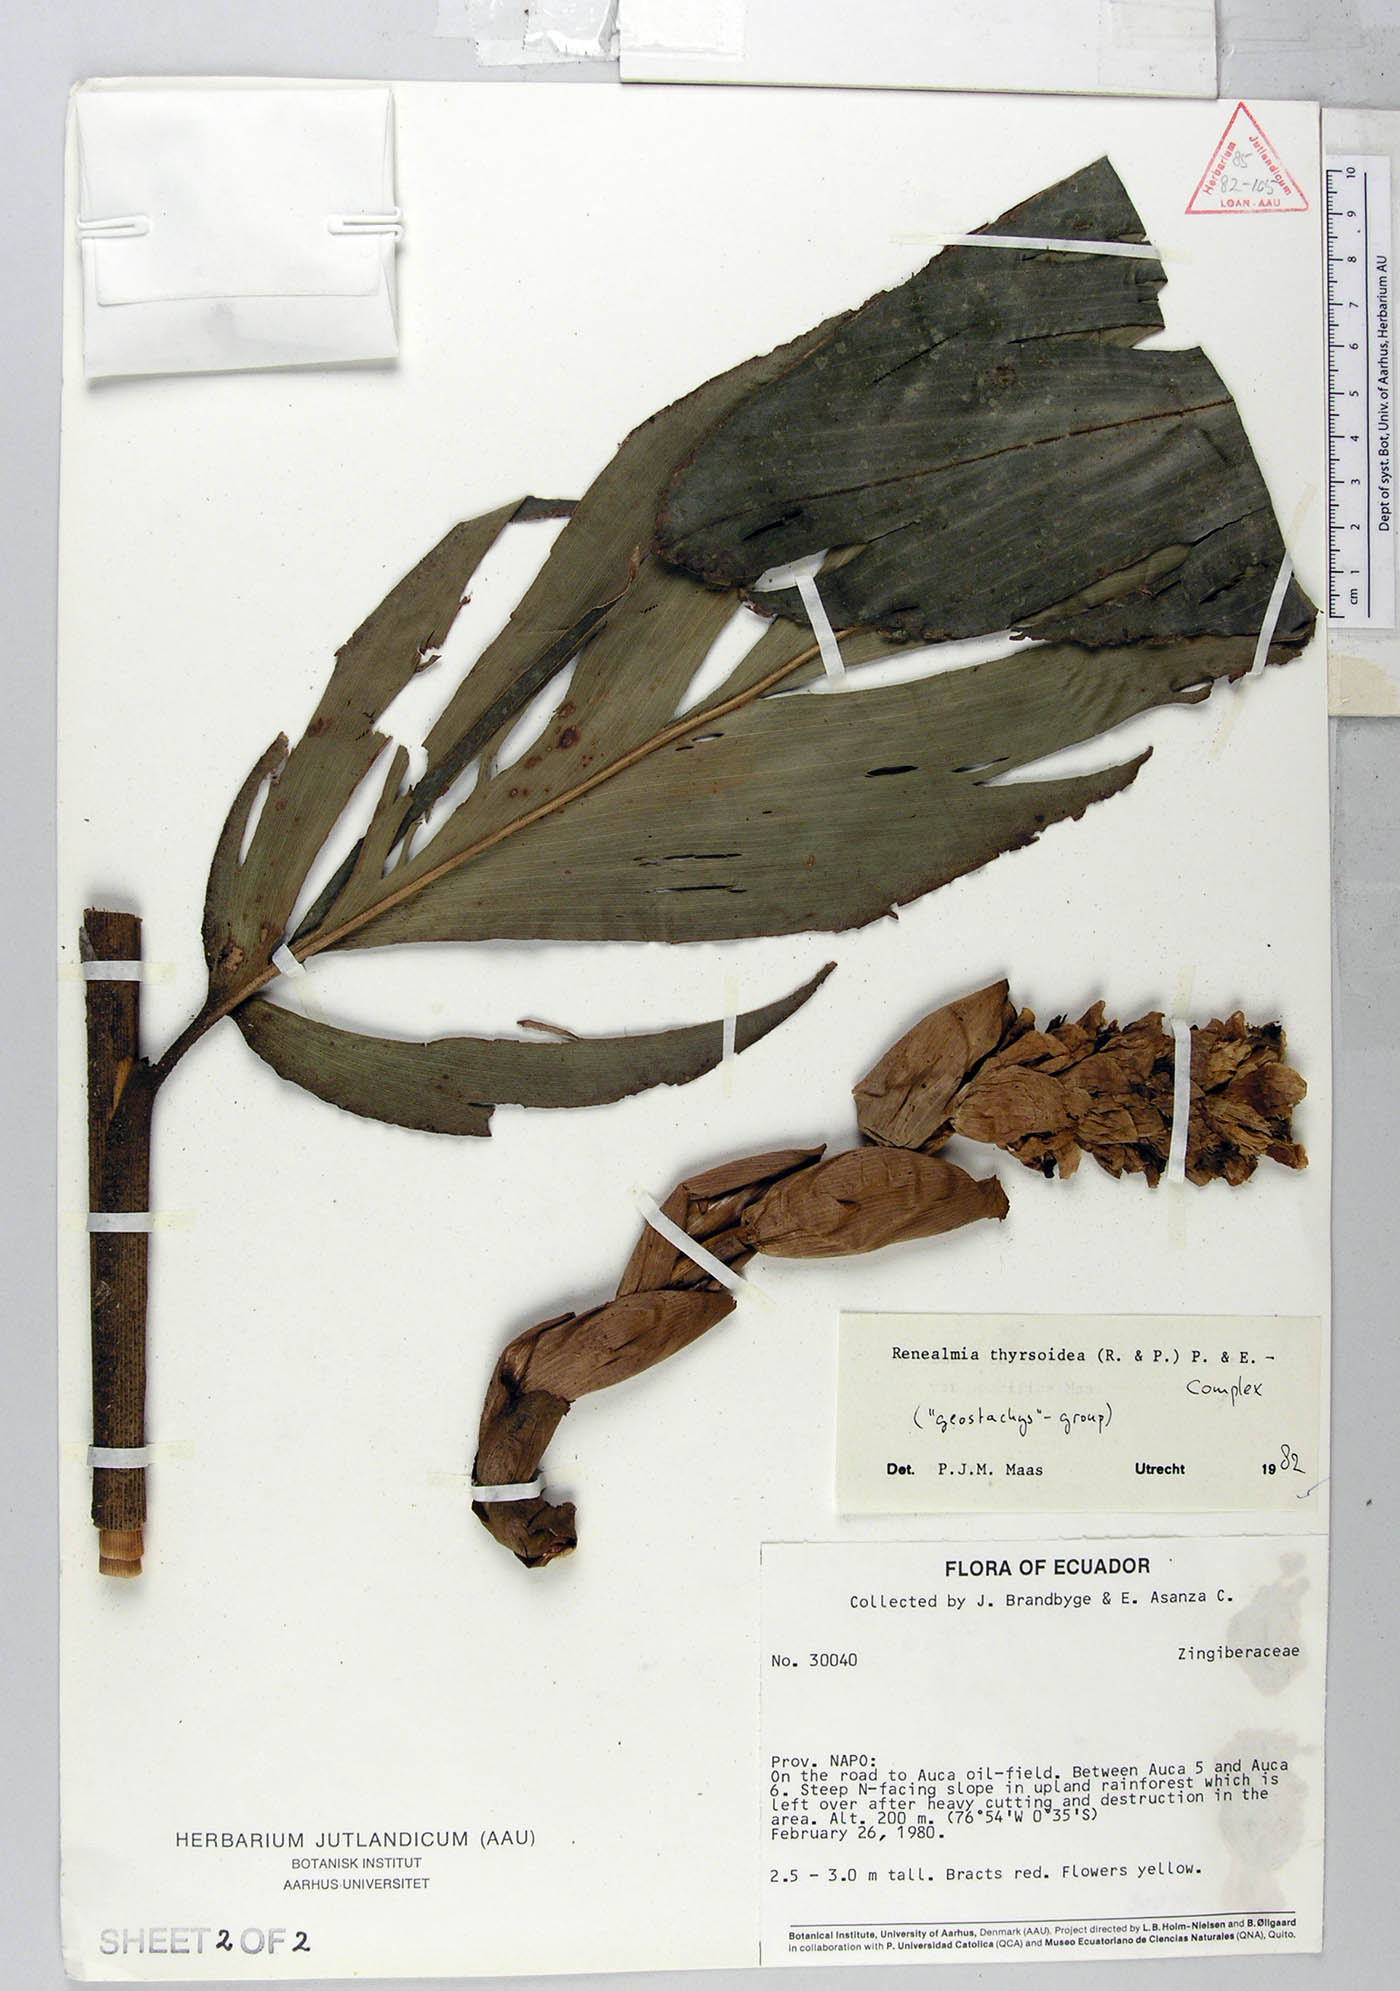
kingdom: Plantae
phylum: Tracheophyta
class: Liliopsida
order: Zingiberales
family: Zingiberaceae
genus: Renealmia
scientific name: Renealmia thyrsoidea
